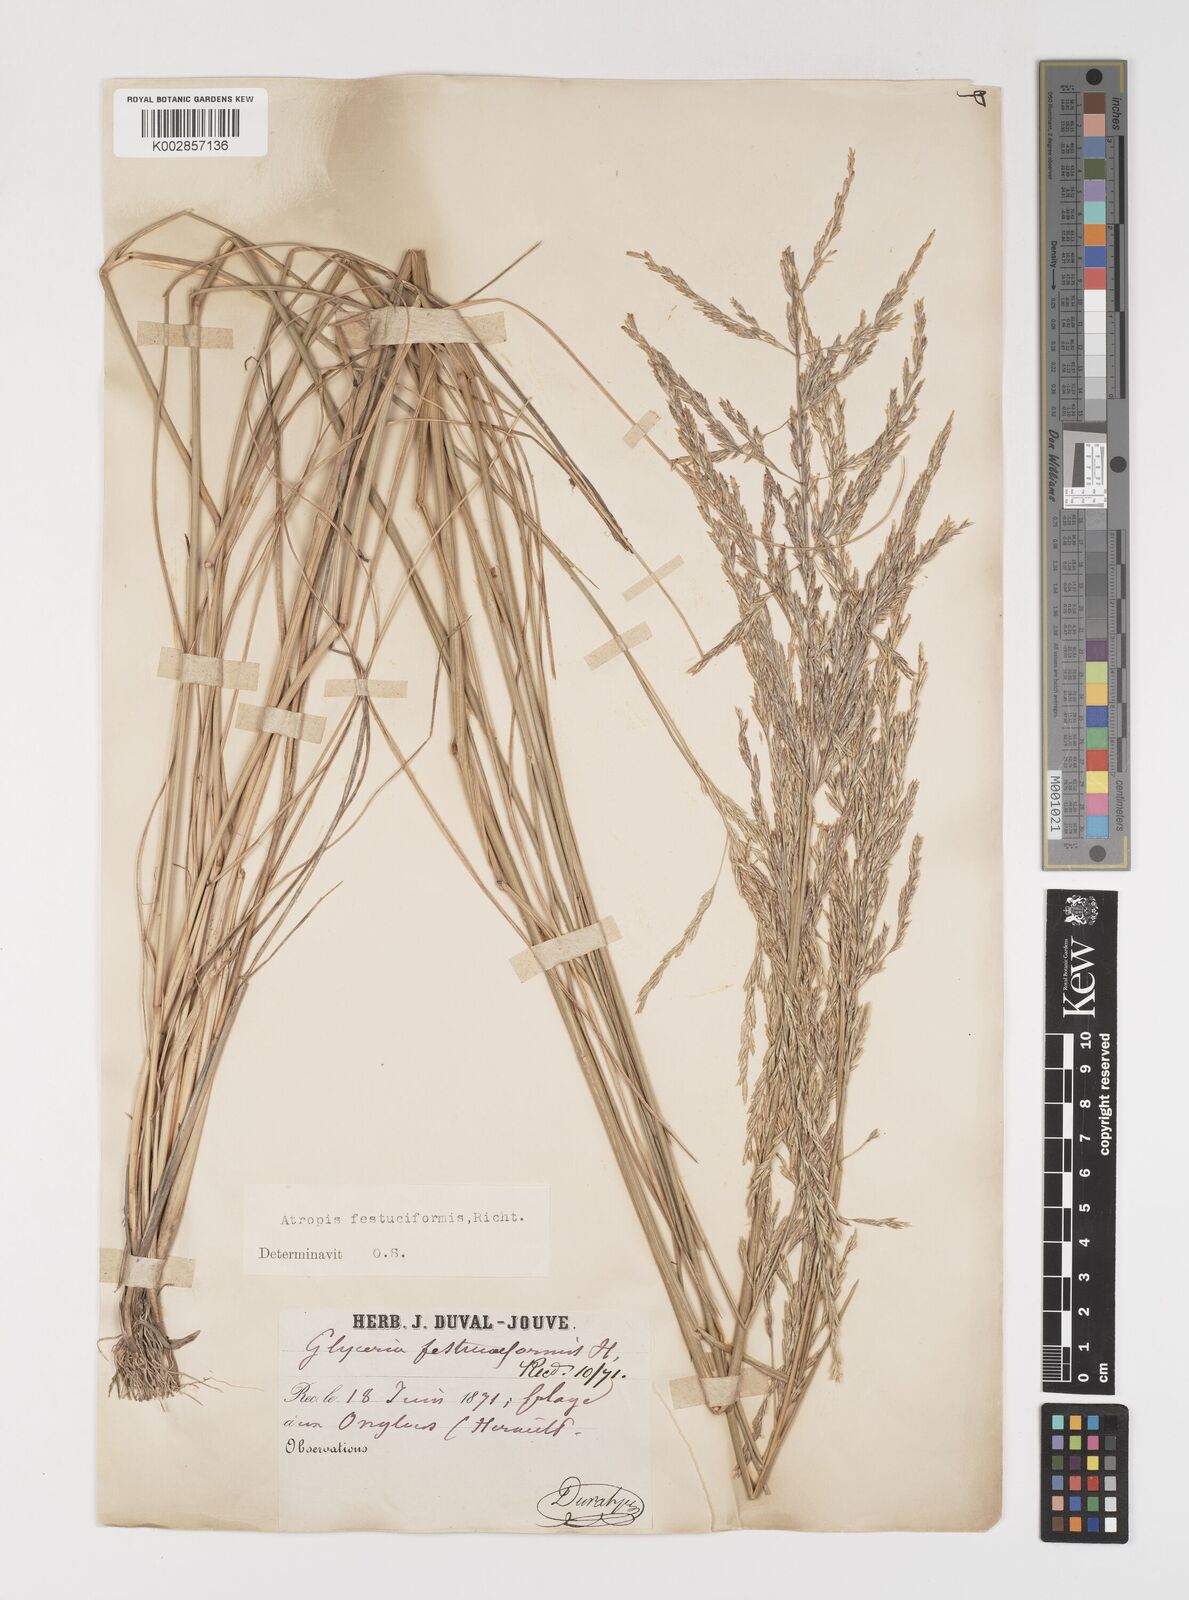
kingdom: Plantae
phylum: Tracheophyta
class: Liliopsida
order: Poales
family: Poaceae
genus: Puccinellia
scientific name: Puccinellia festuciformis
